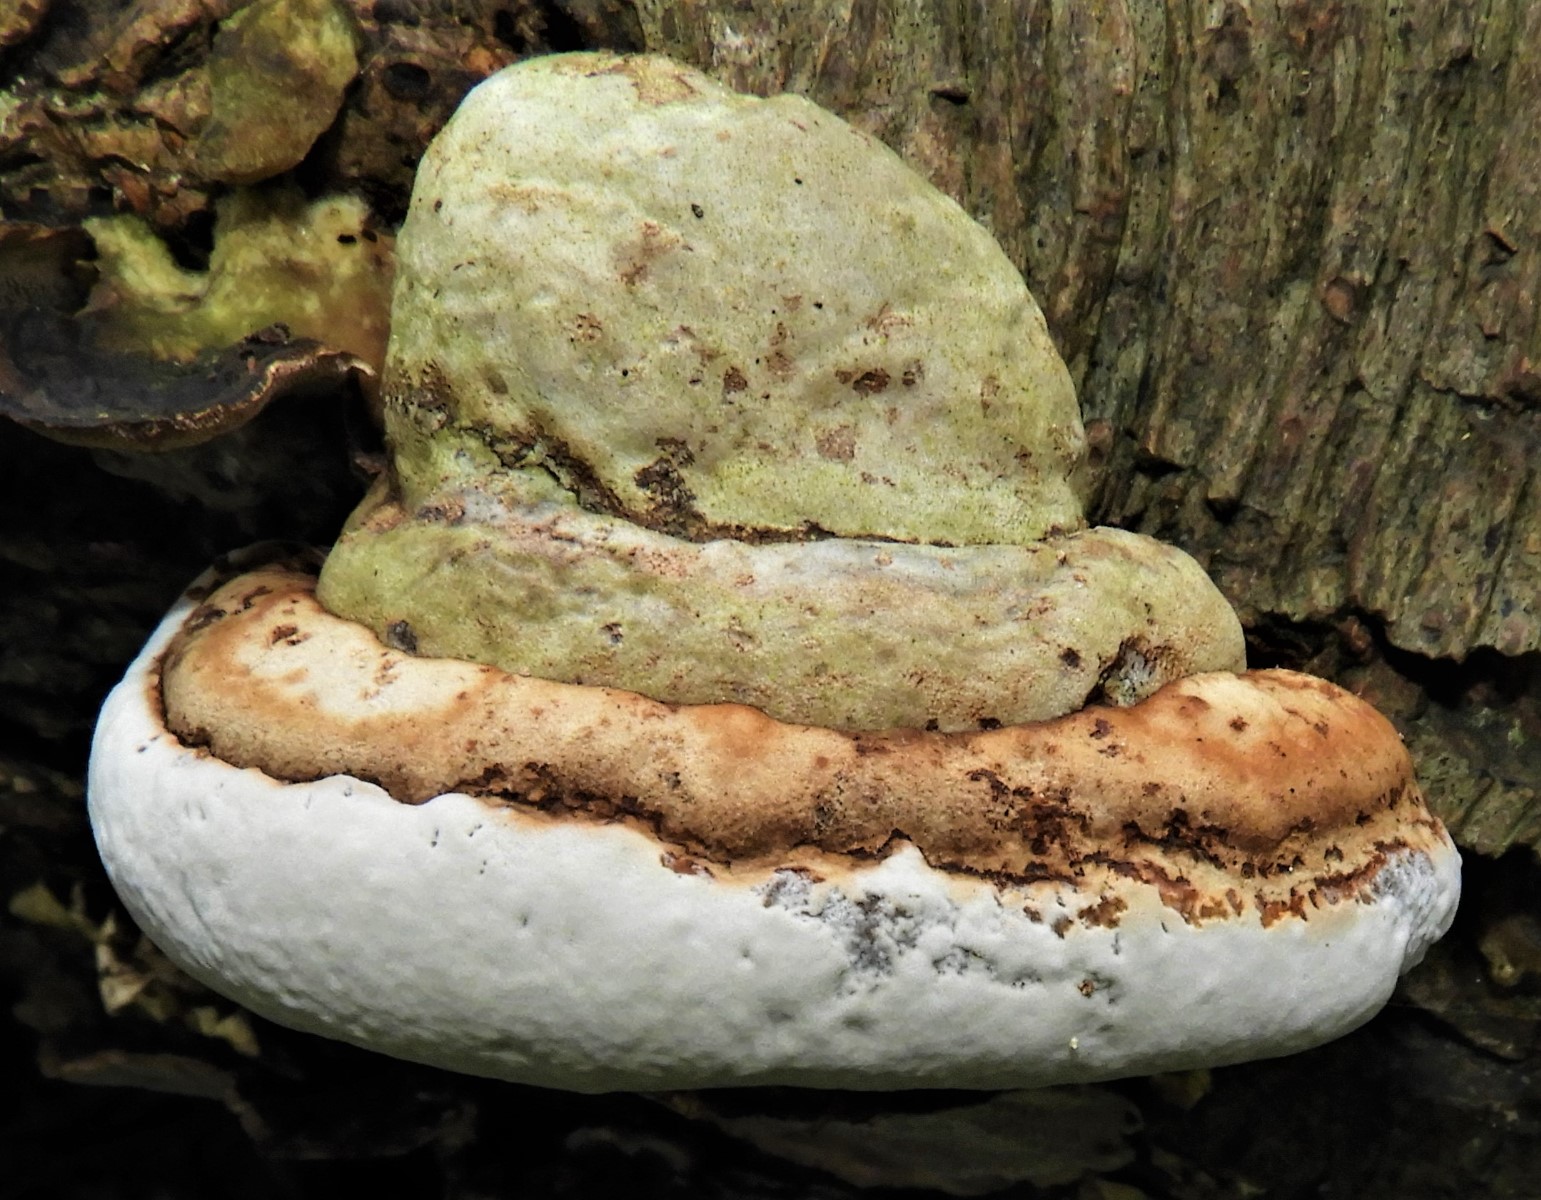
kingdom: Fungi
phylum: Basidiomycota
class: Agaricomycetes
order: Polyporales
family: Polyporaceae
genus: Fomes
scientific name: Fomes fomentarius
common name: tøndersvamp
